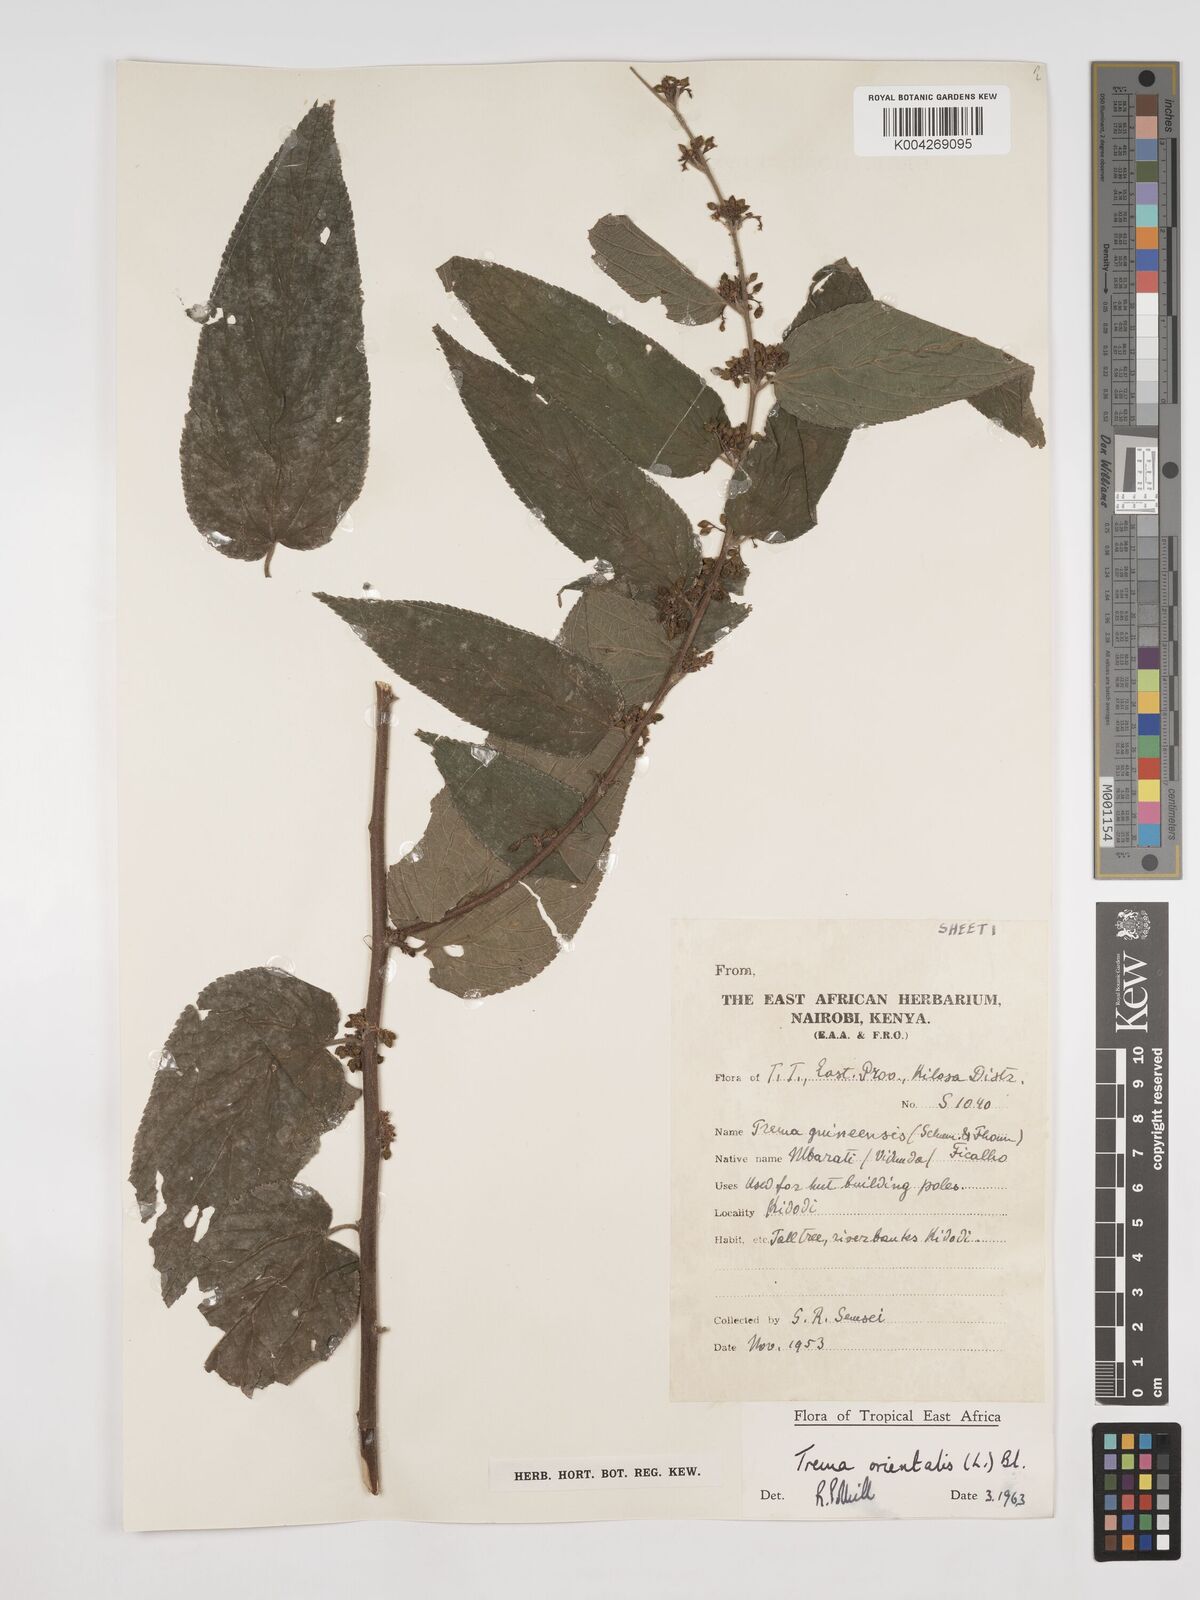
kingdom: Plantae
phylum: Tracheophyta
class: Magnoliopsida
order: Rosales
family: Cannabaceae
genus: Trema
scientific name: Trema orientale
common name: Indian charcoal tree
